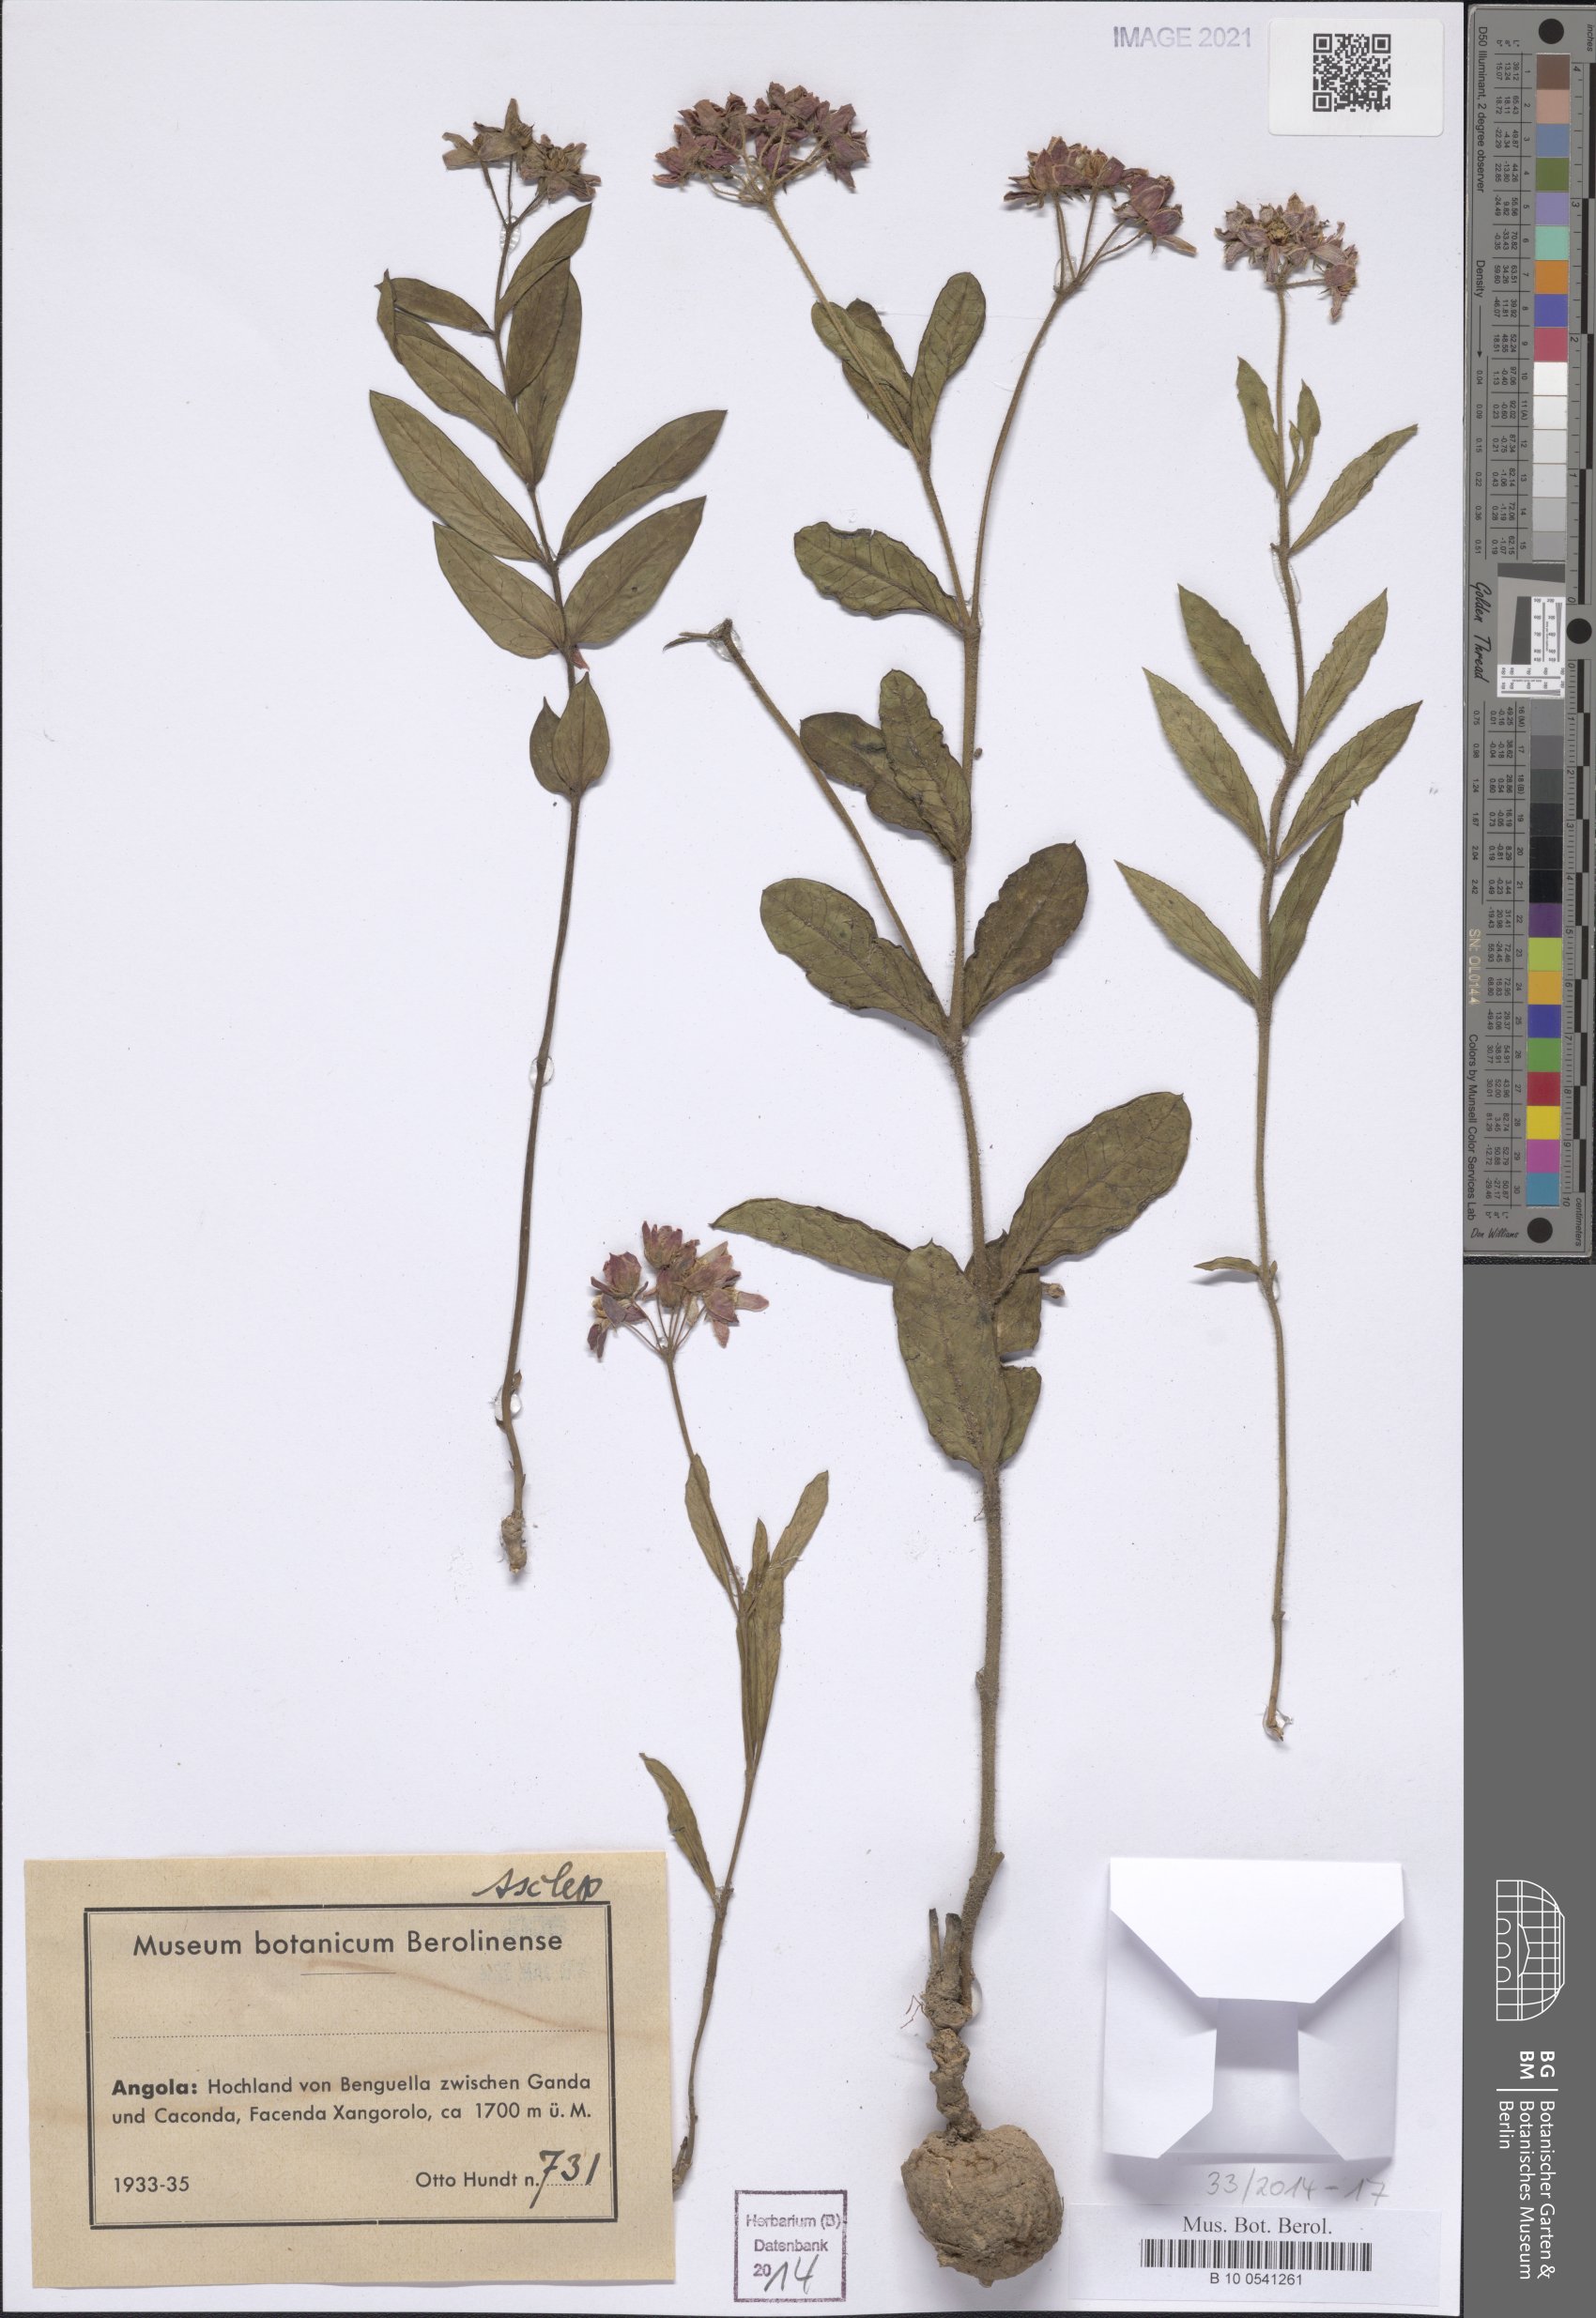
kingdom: Plantae
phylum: Tracheophyta
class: Magnoliopsida
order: Gentianales
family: Asclepiadaceae
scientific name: Asclepiadaceae
